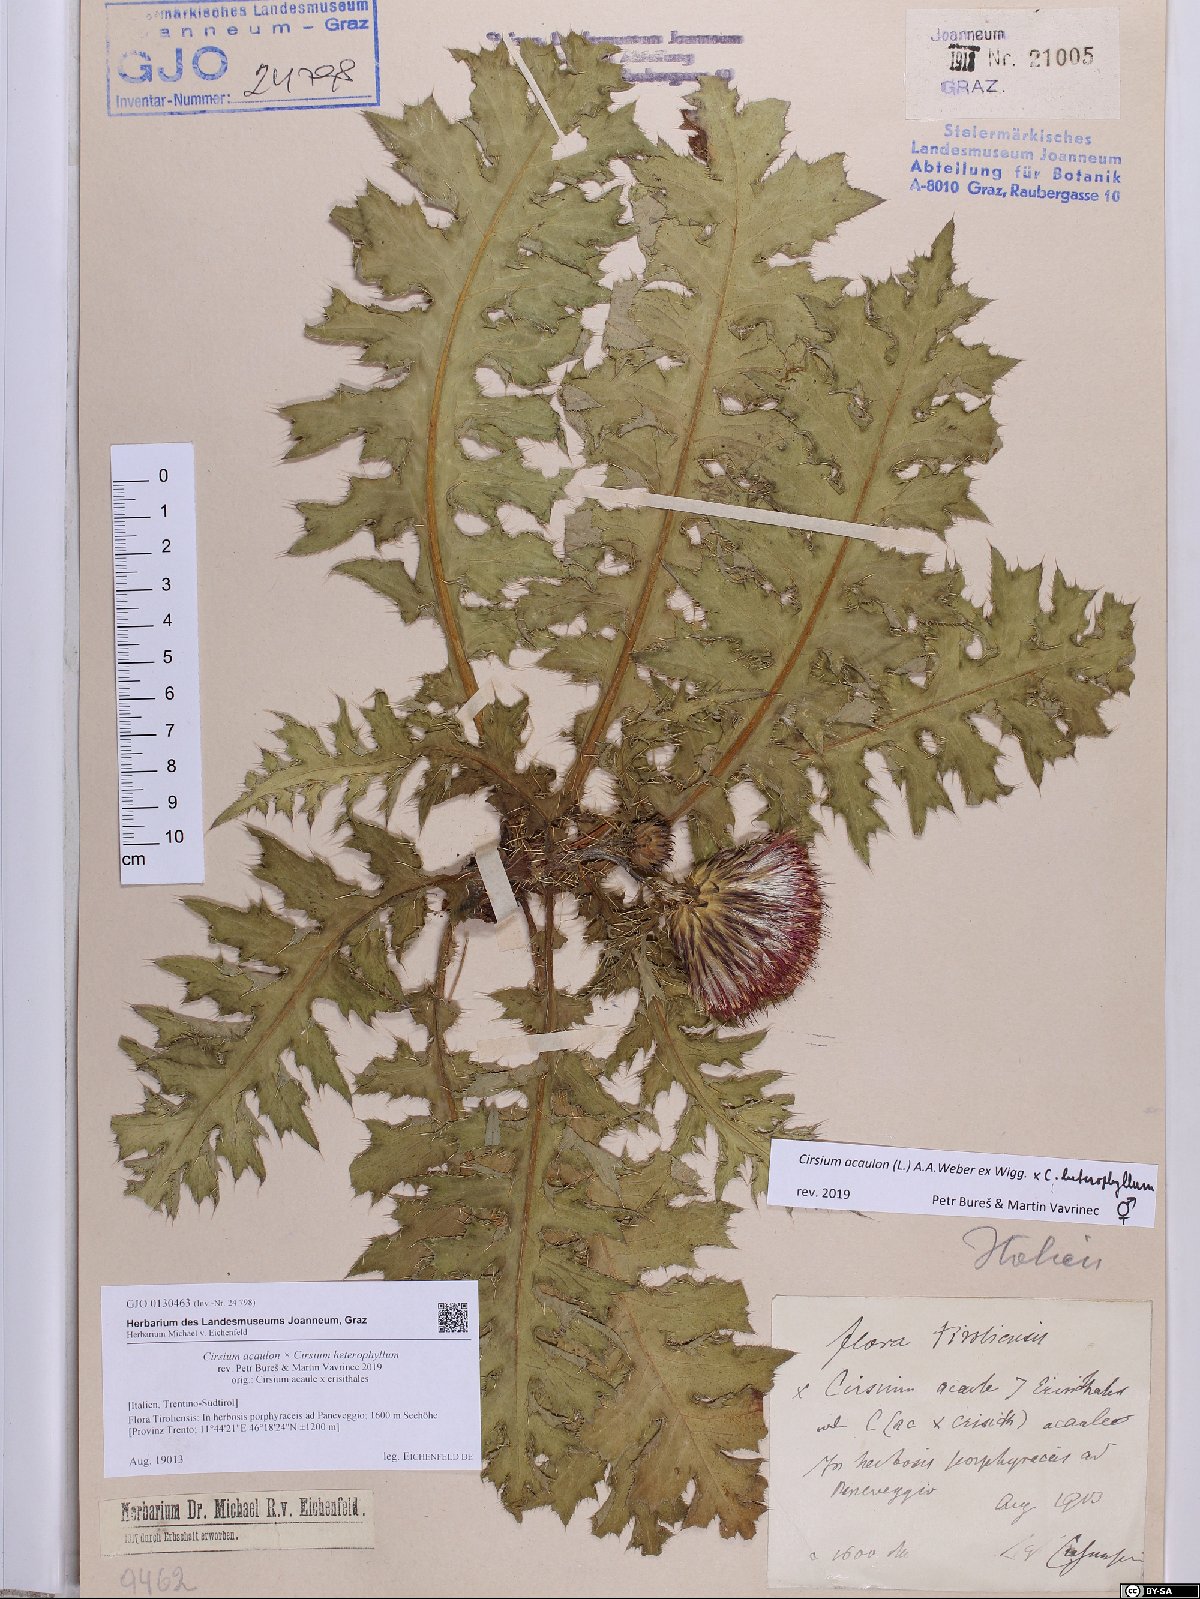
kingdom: Plantae
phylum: Tracheophyta
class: Magnoliopsida
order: Asterales
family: Asteraceae
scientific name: Asteraceae
